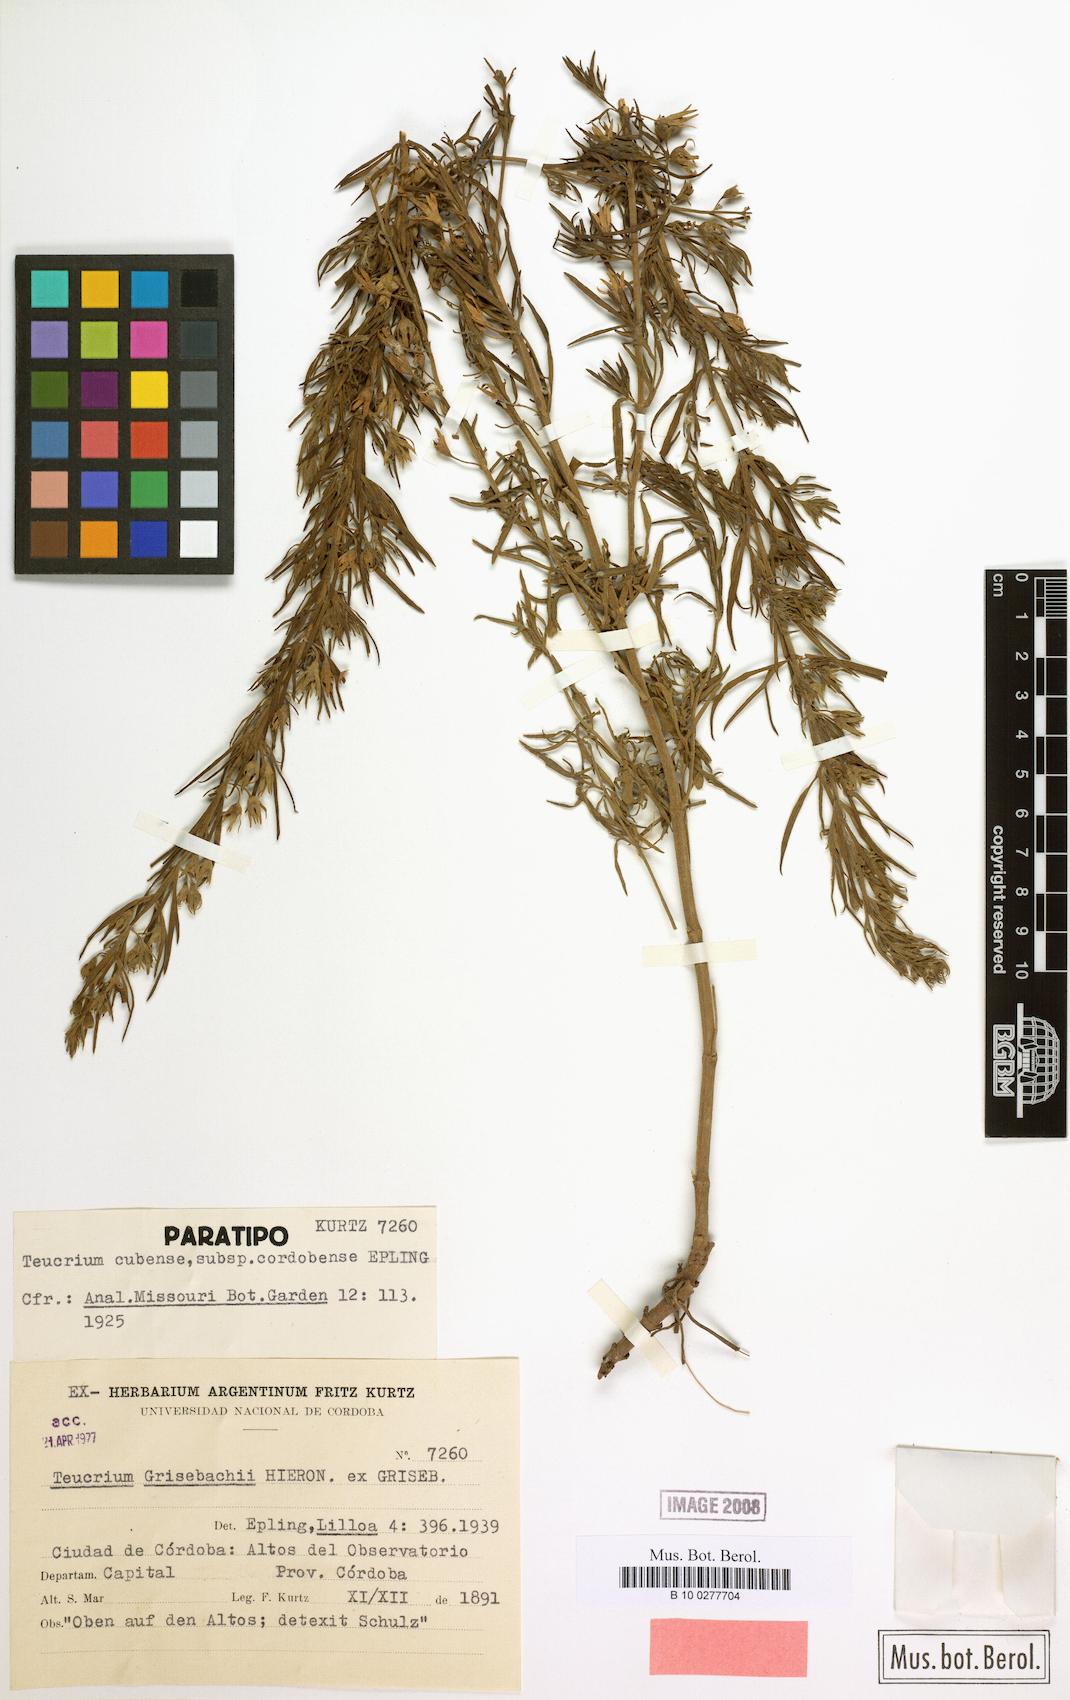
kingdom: Plantae
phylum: Tracheophyta
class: Magnoliopsida
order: Lamiales
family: Lamiaceae
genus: Teucrium
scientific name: Teucrium cubense
